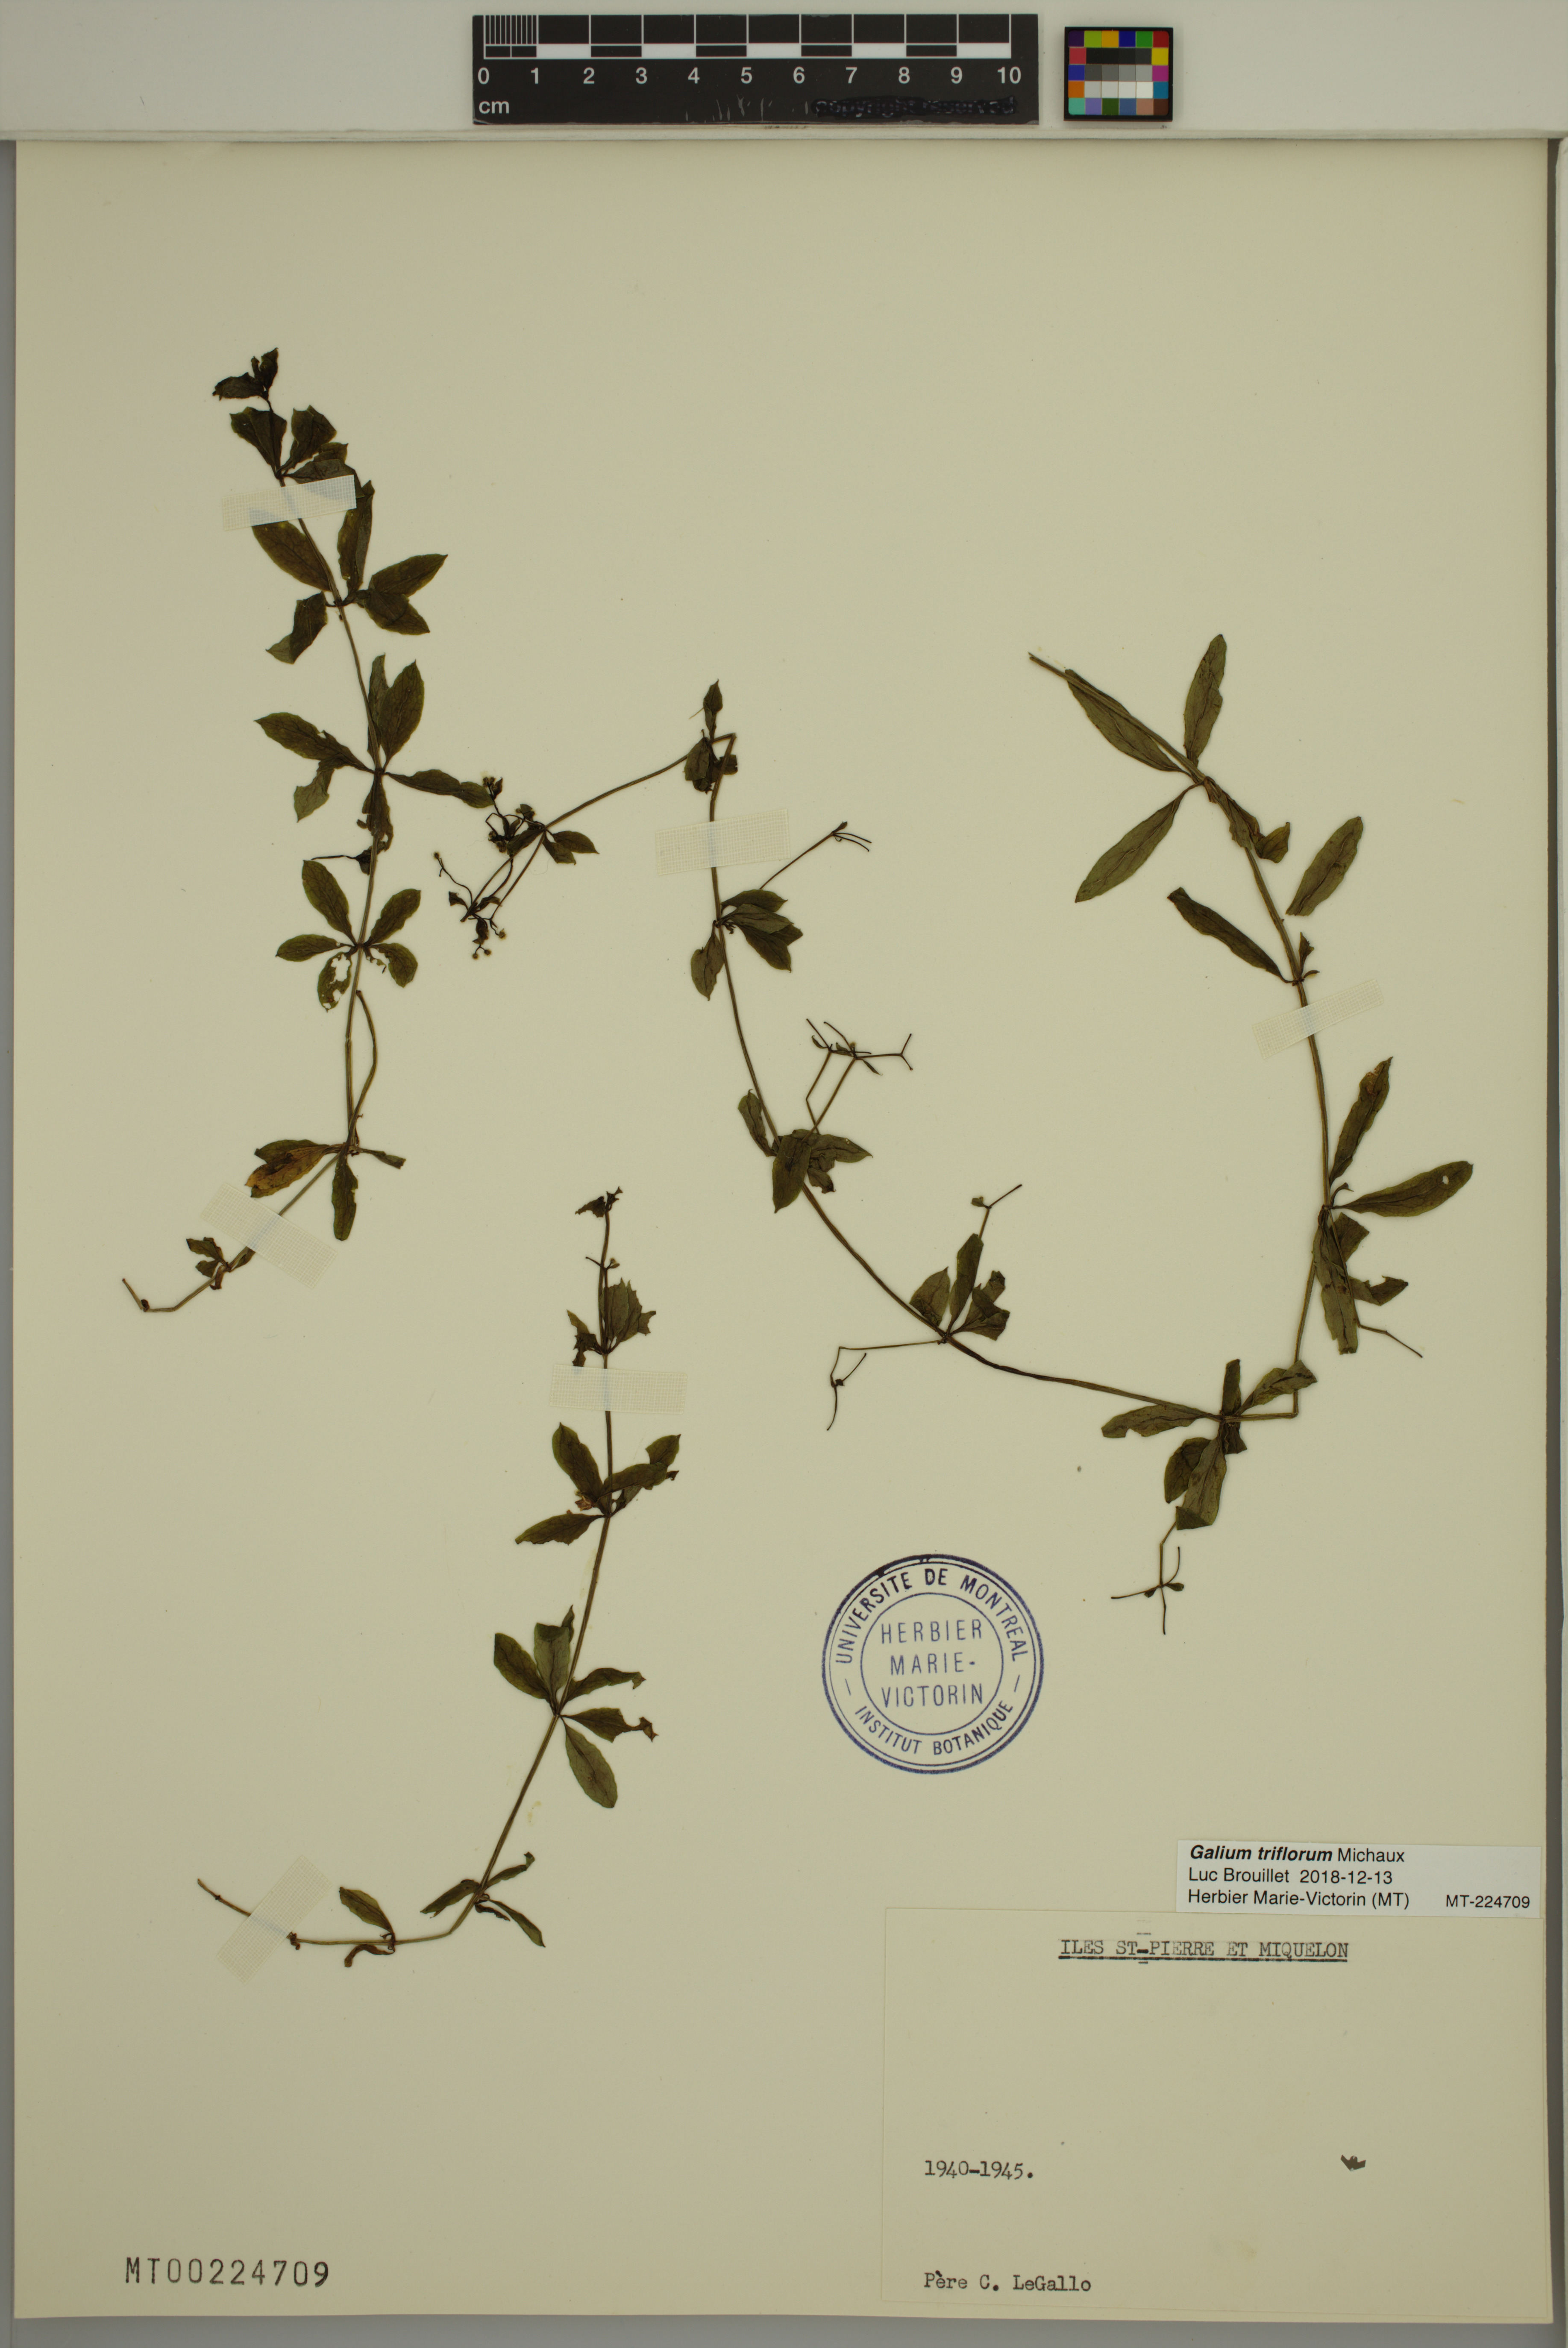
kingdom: Plantae
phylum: Tracheophyta
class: Magnoliopsida
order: Gentianales
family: Rubiaceae
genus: Galium
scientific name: Galium triflorum
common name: Fragrant bedstraw
